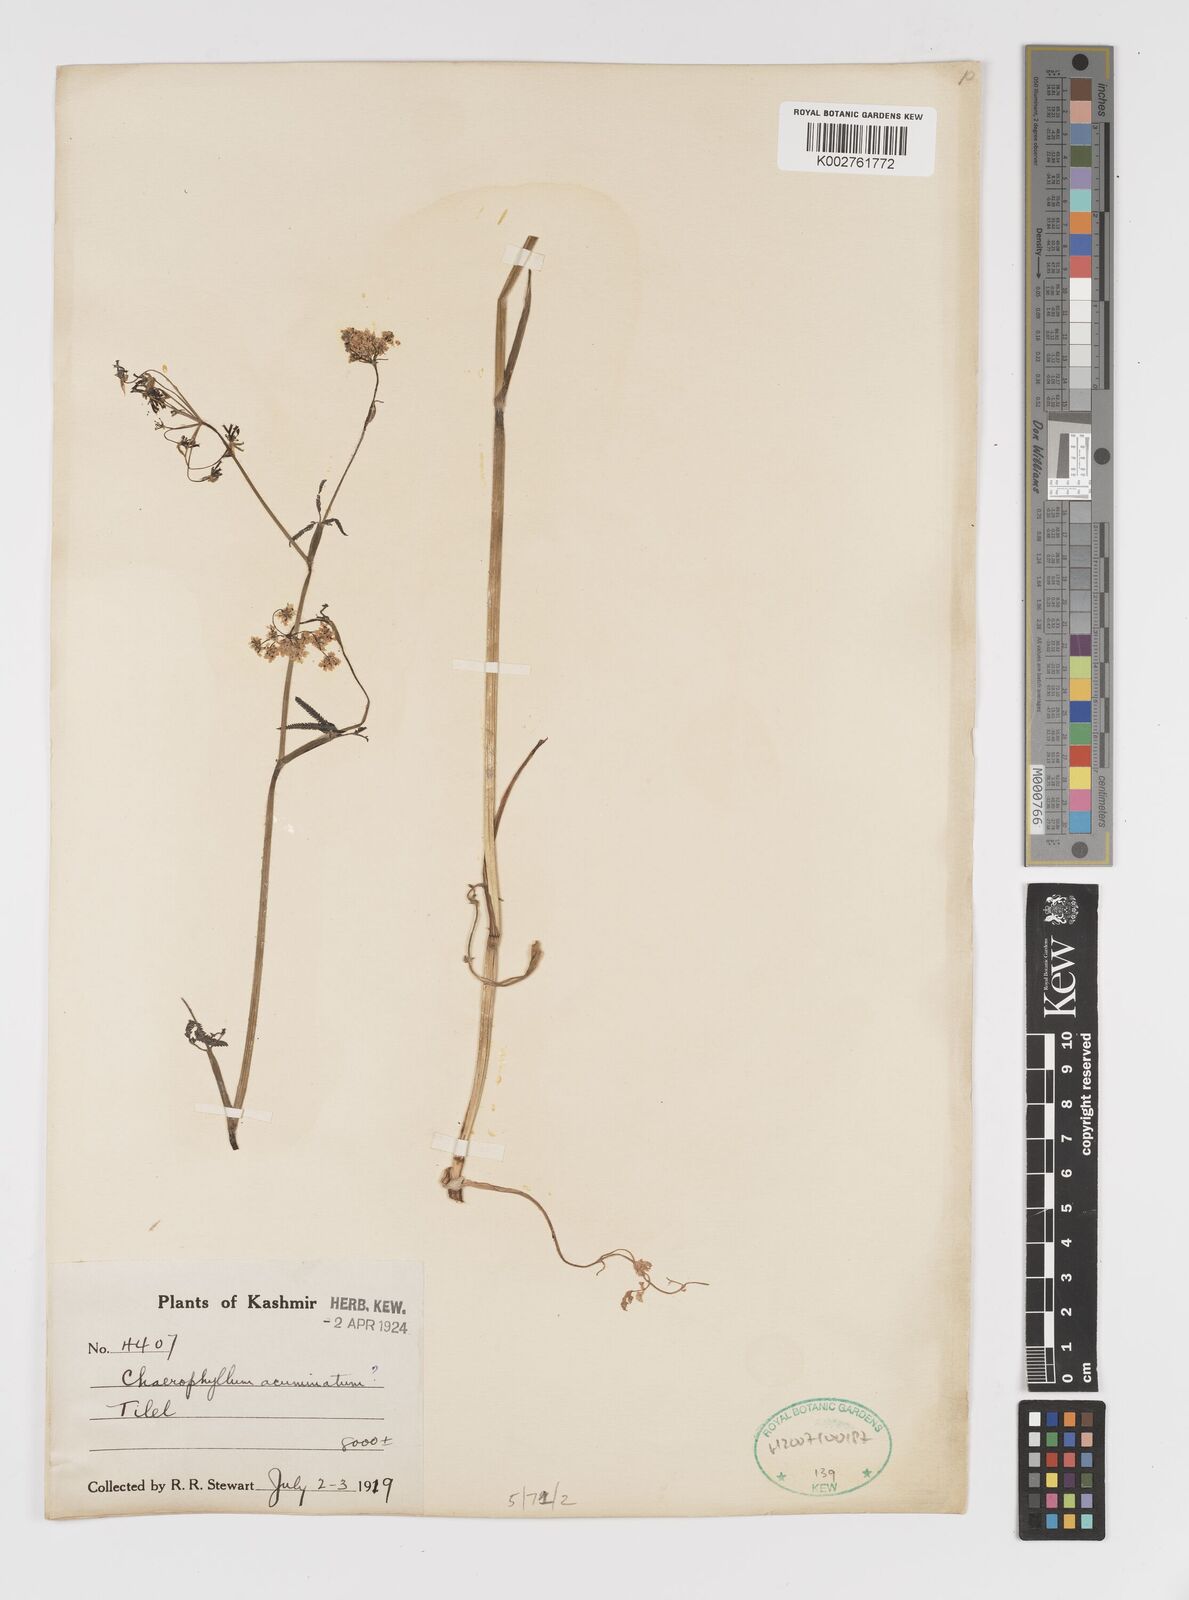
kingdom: Plantae
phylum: Tracheophyta
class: Magnoliopsida
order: Apiales
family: Apiaceae
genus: Chaerophyllum
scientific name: Chaerophyllum reflexum
